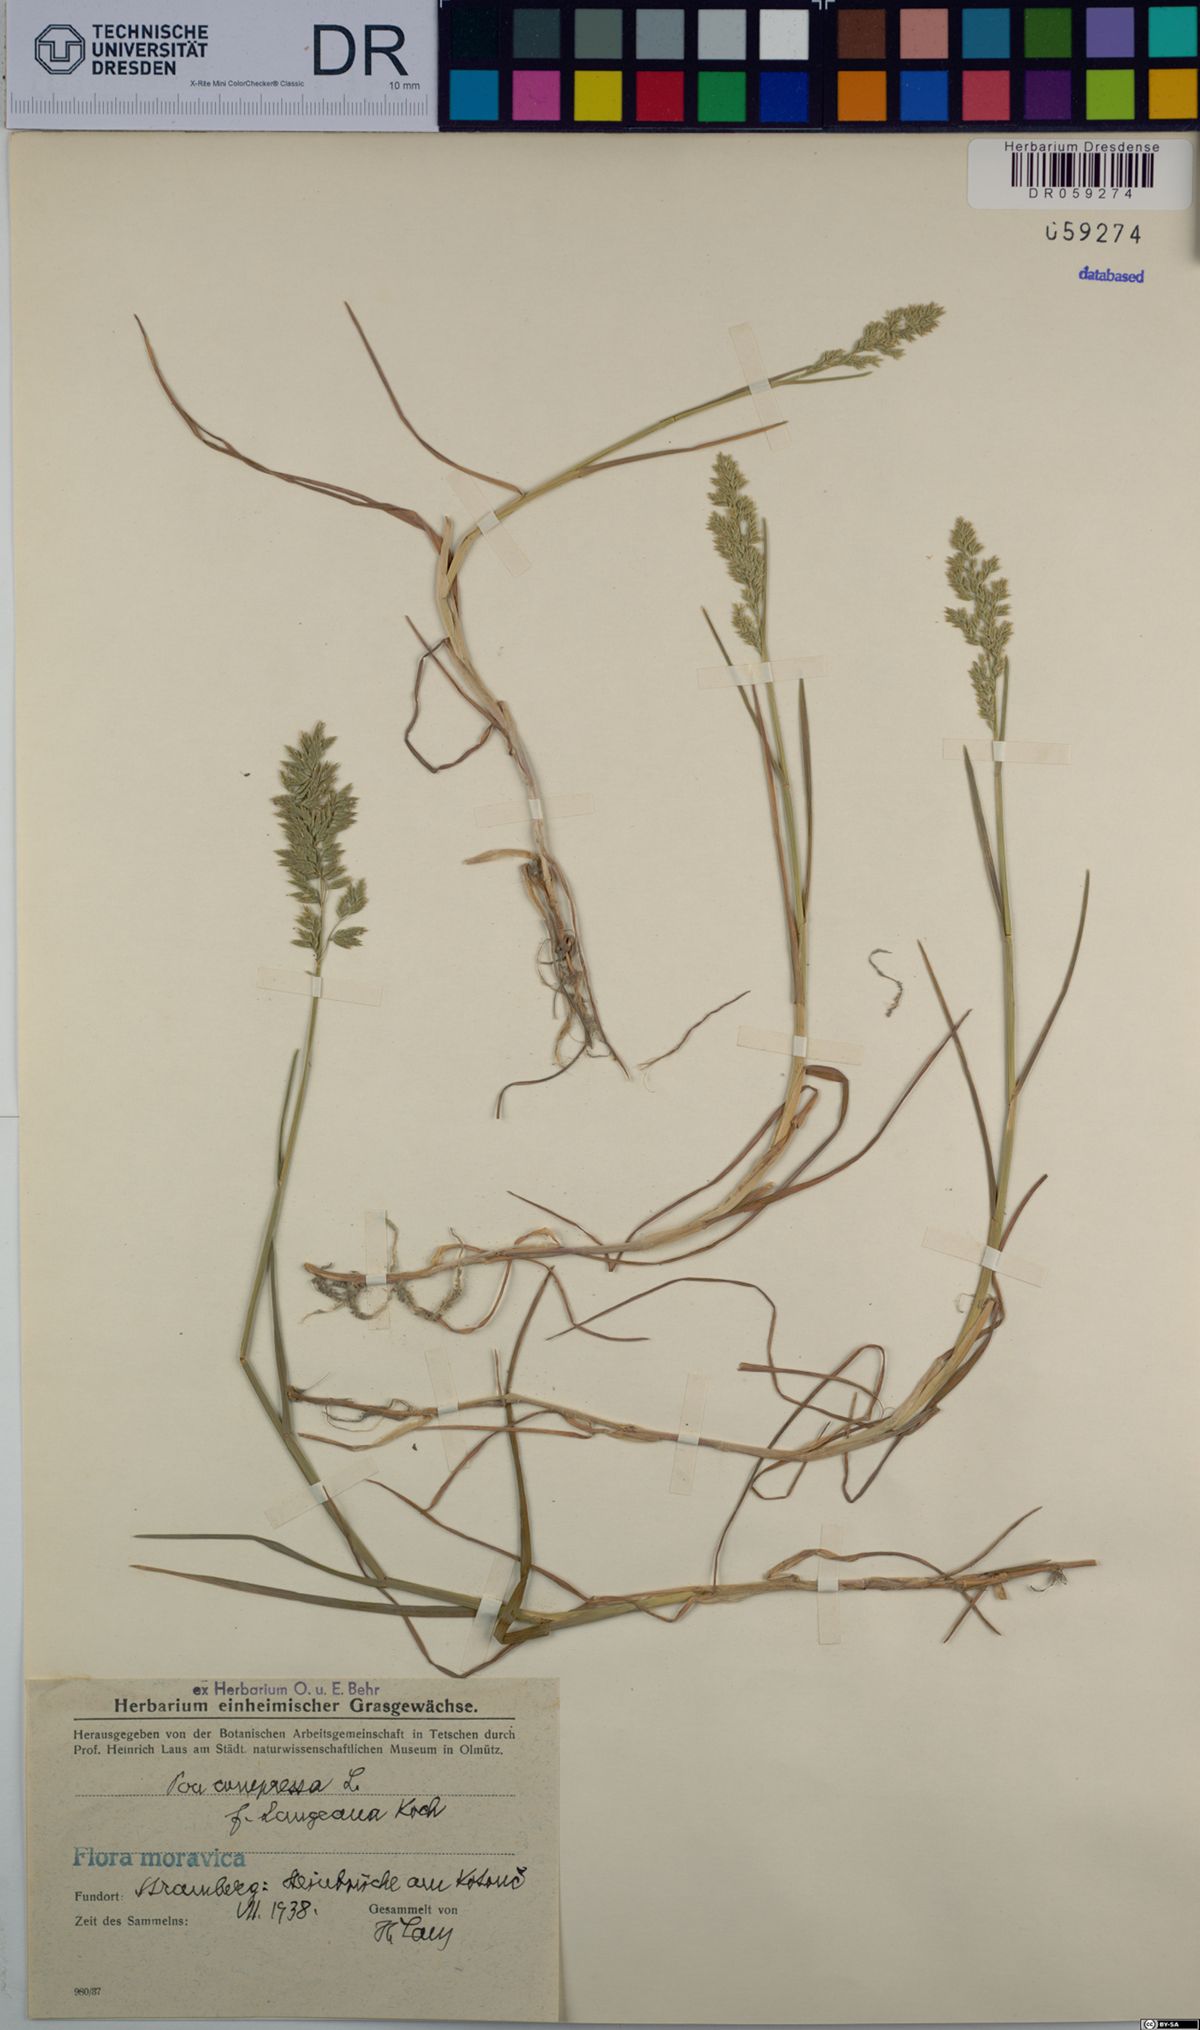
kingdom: Plantae
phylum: Tracheophyta
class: Liliopsida
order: Poales
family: Poaceae
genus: Poa
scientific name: Poa compressa
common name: Canada bluegrass
